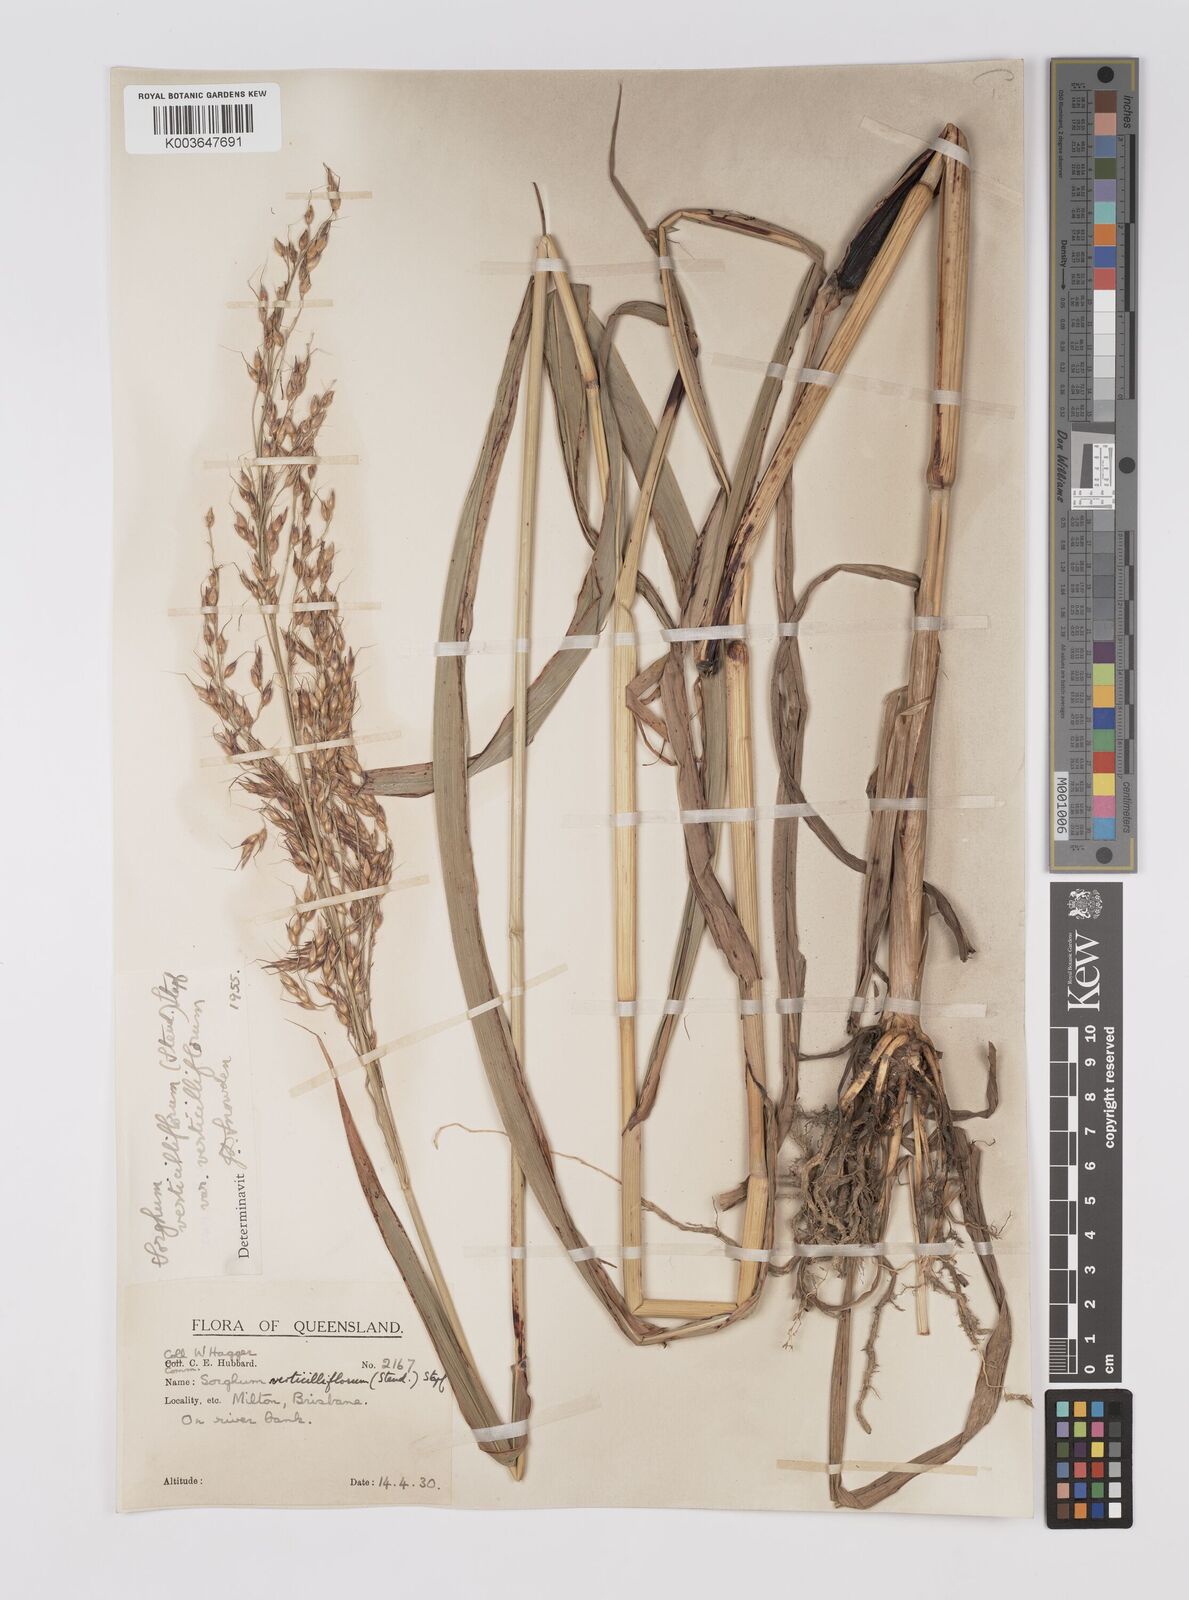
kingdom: Plantae
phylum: Tracheophyta
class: Liliopsida
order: Poales
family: Poaceae
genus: Sorghum
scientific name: Sorghum arundinaceum
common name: Sorghum
